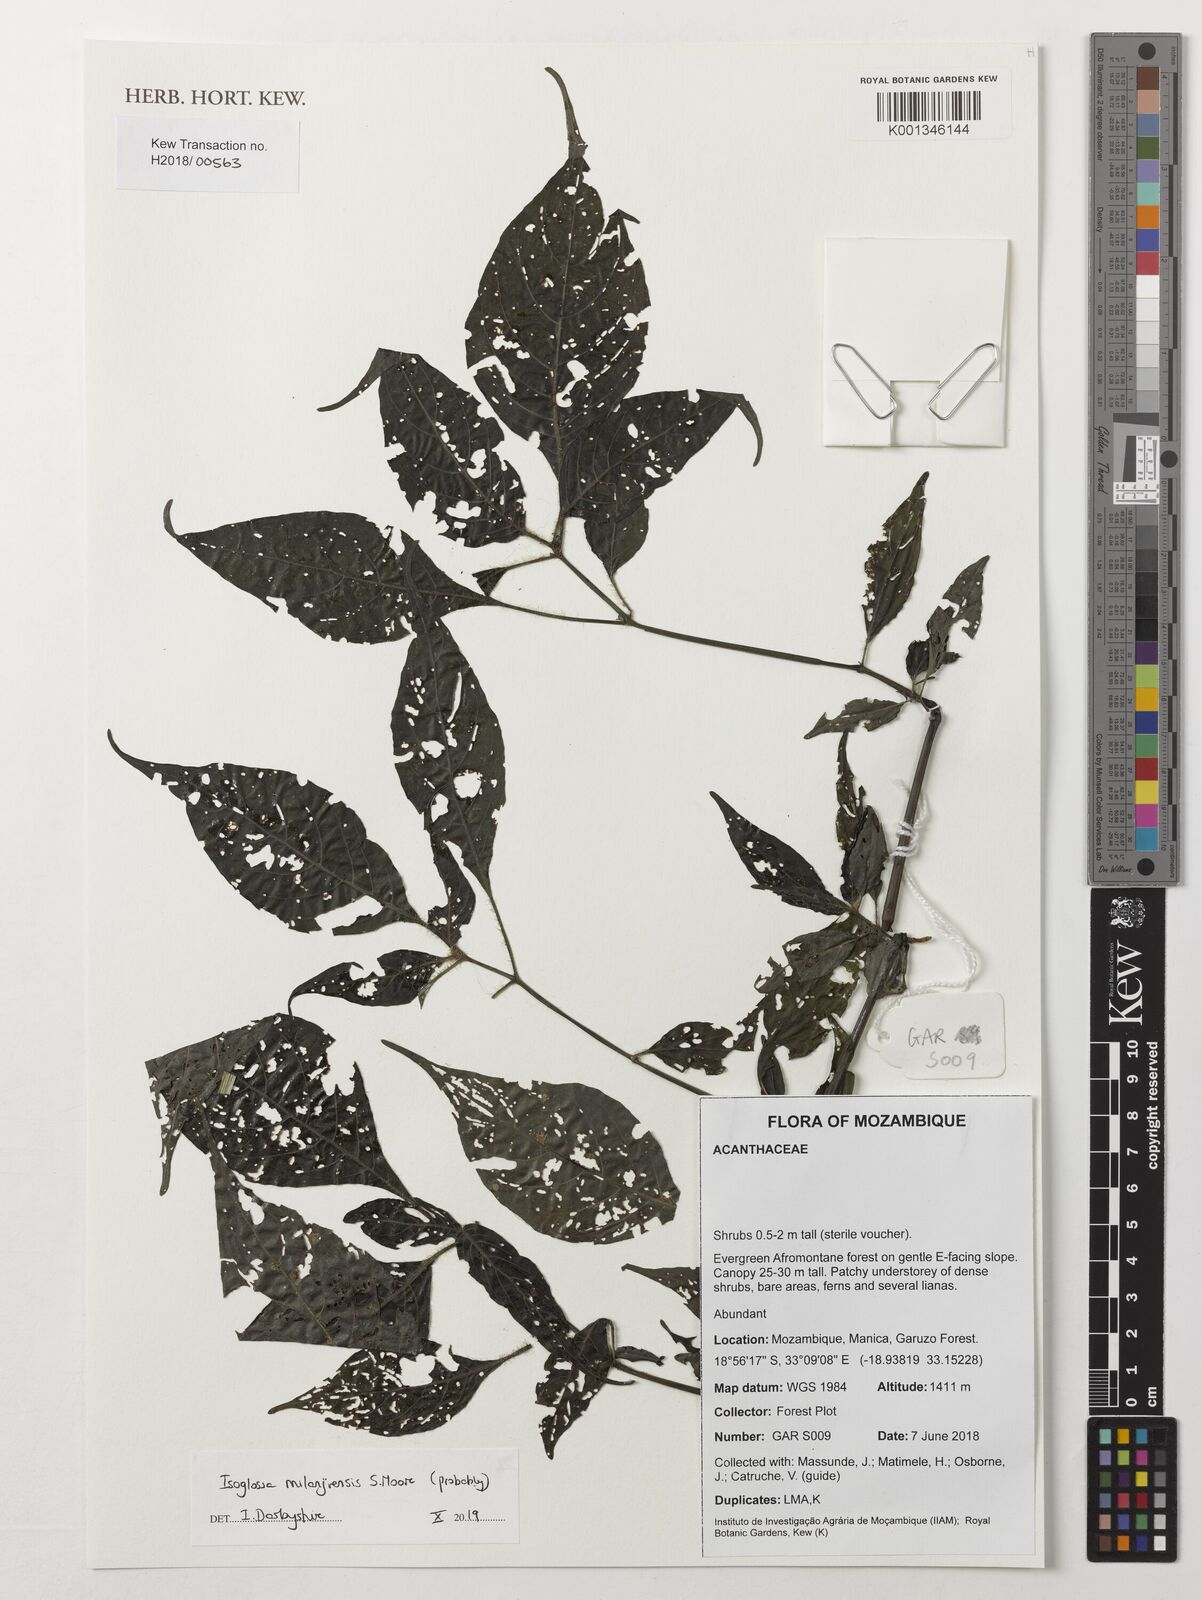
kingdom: Plantae
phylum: Tracheophyta
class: Magnoliopsida
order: Lamiales
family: Acanthaceae
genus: Isoglossa
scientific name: Isoglossa milanjiensis
